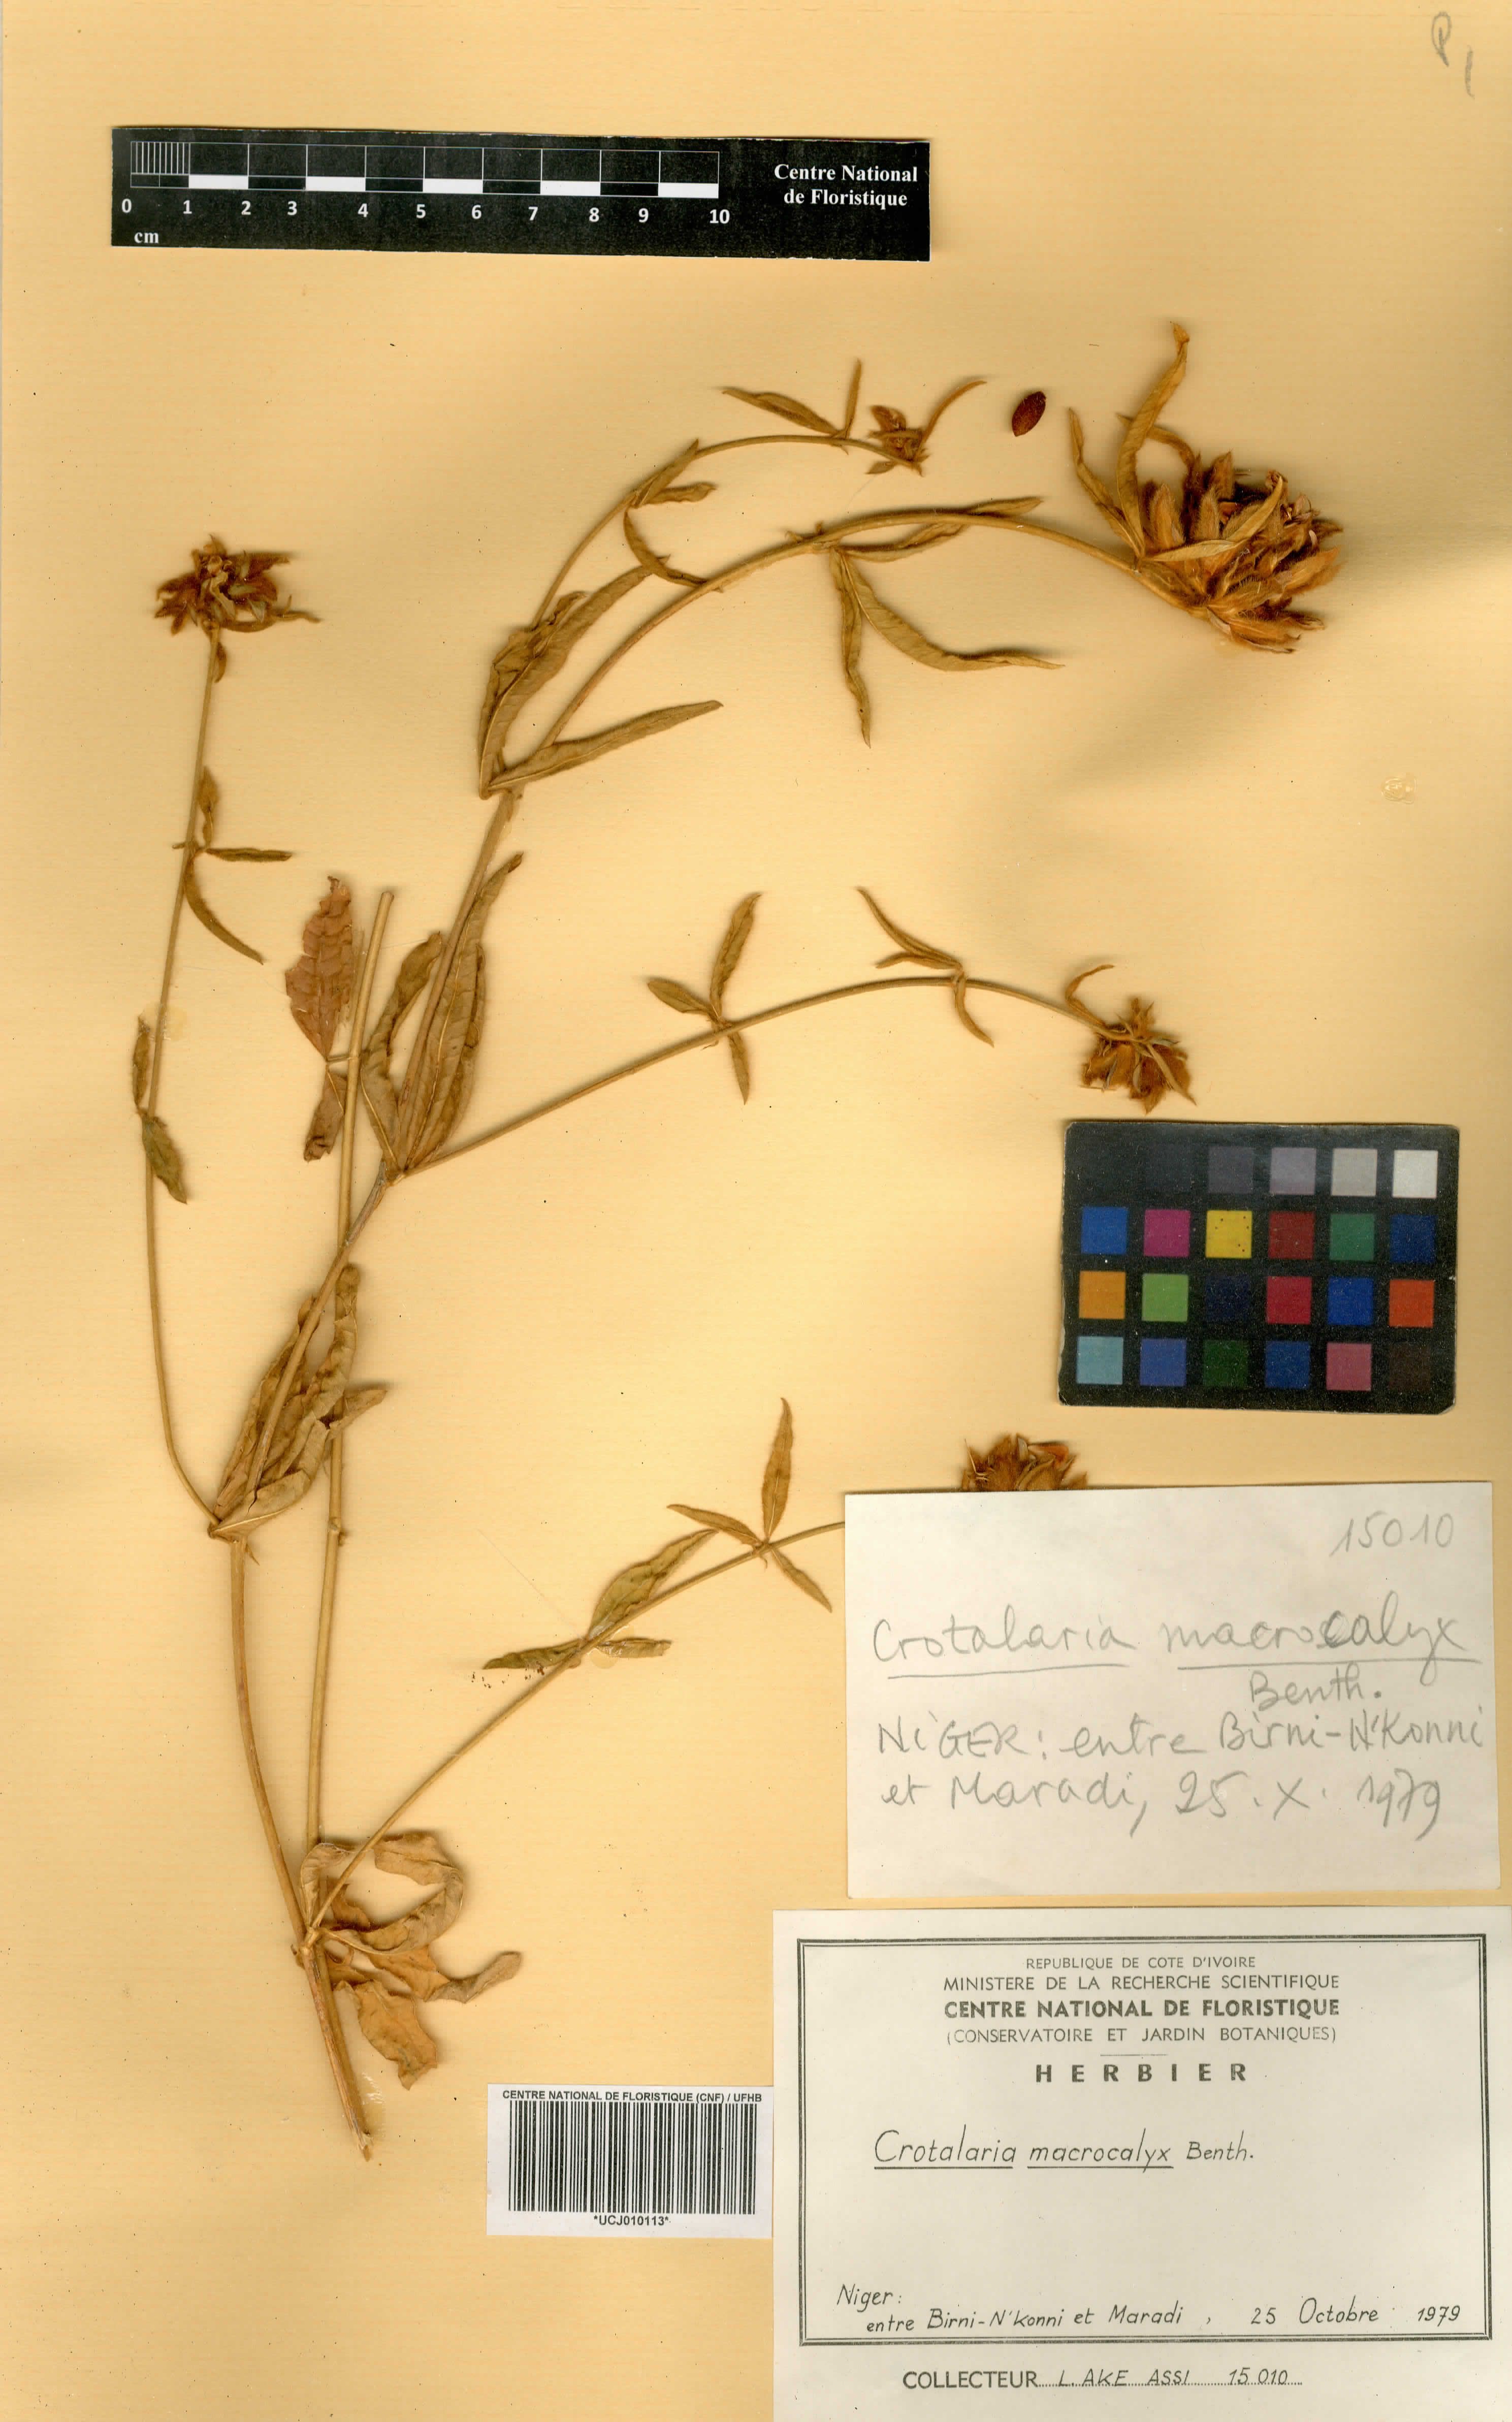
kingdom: Plantae
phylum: Tracheophyta
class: Magnoliopsida
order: Fabales
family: Fabaceae
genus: Crotalaria
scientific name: Crotalaria macrocalyx
